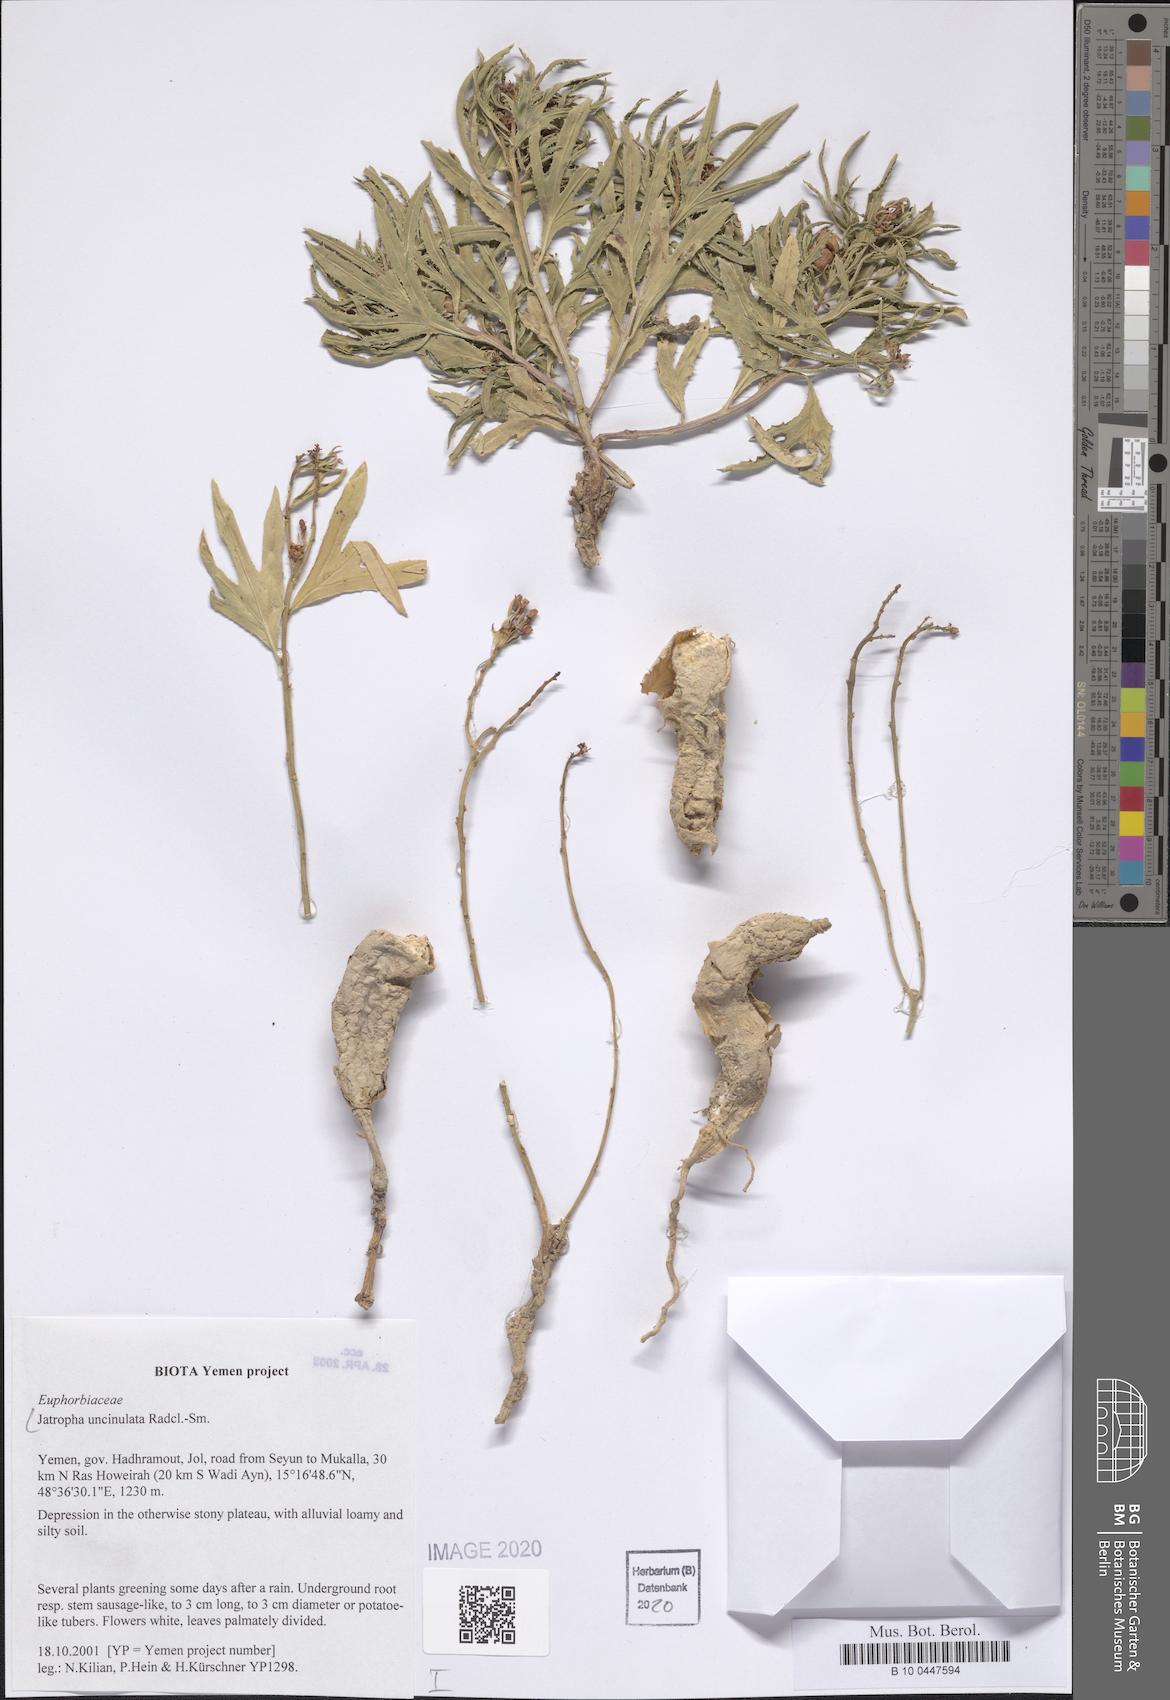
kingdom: Plantae
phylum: Tracheophyta
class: Magnoliopsida
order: Malpighiales
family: Euphorbiaceae
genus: Jatropha
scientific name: Jatropha uncinulata
